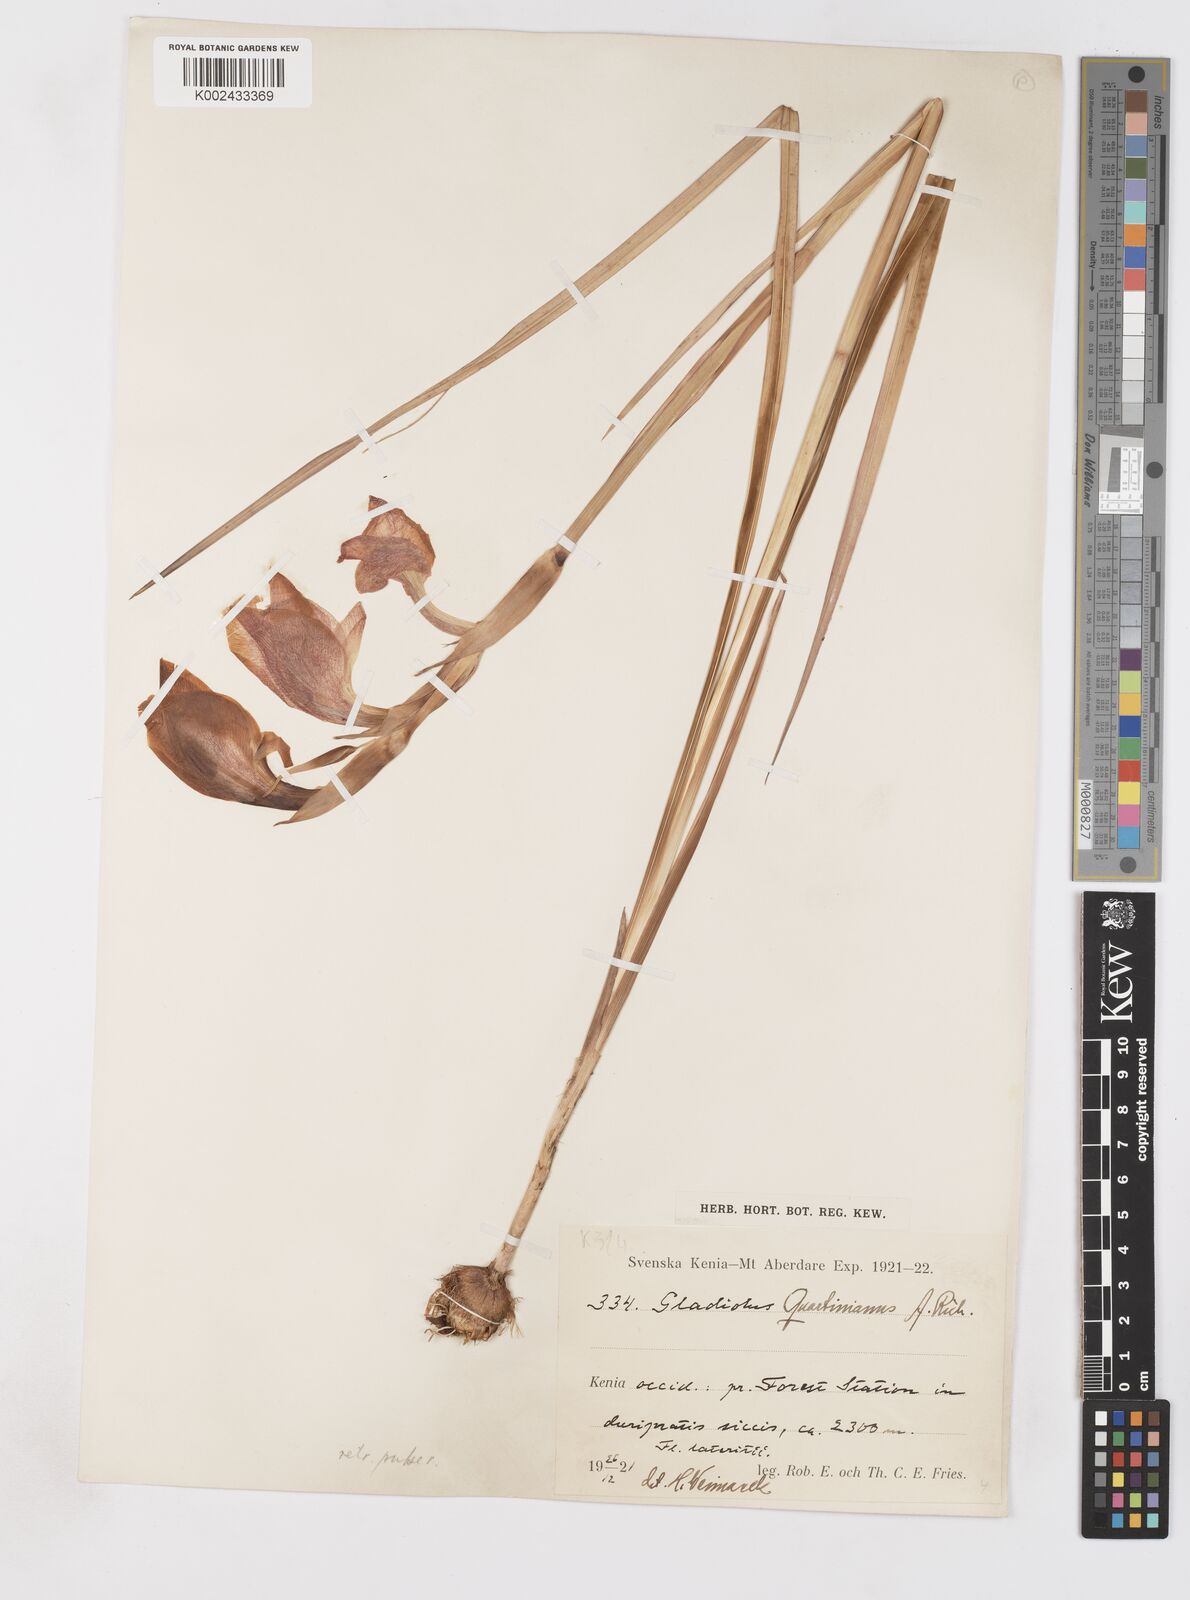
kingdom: Plantae
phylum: Tracheophyta
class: Liliopsida
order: Asparagales
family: Iridaceae
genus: Gladiolus
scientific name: Gladiolus dalenii
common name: Cornflag
